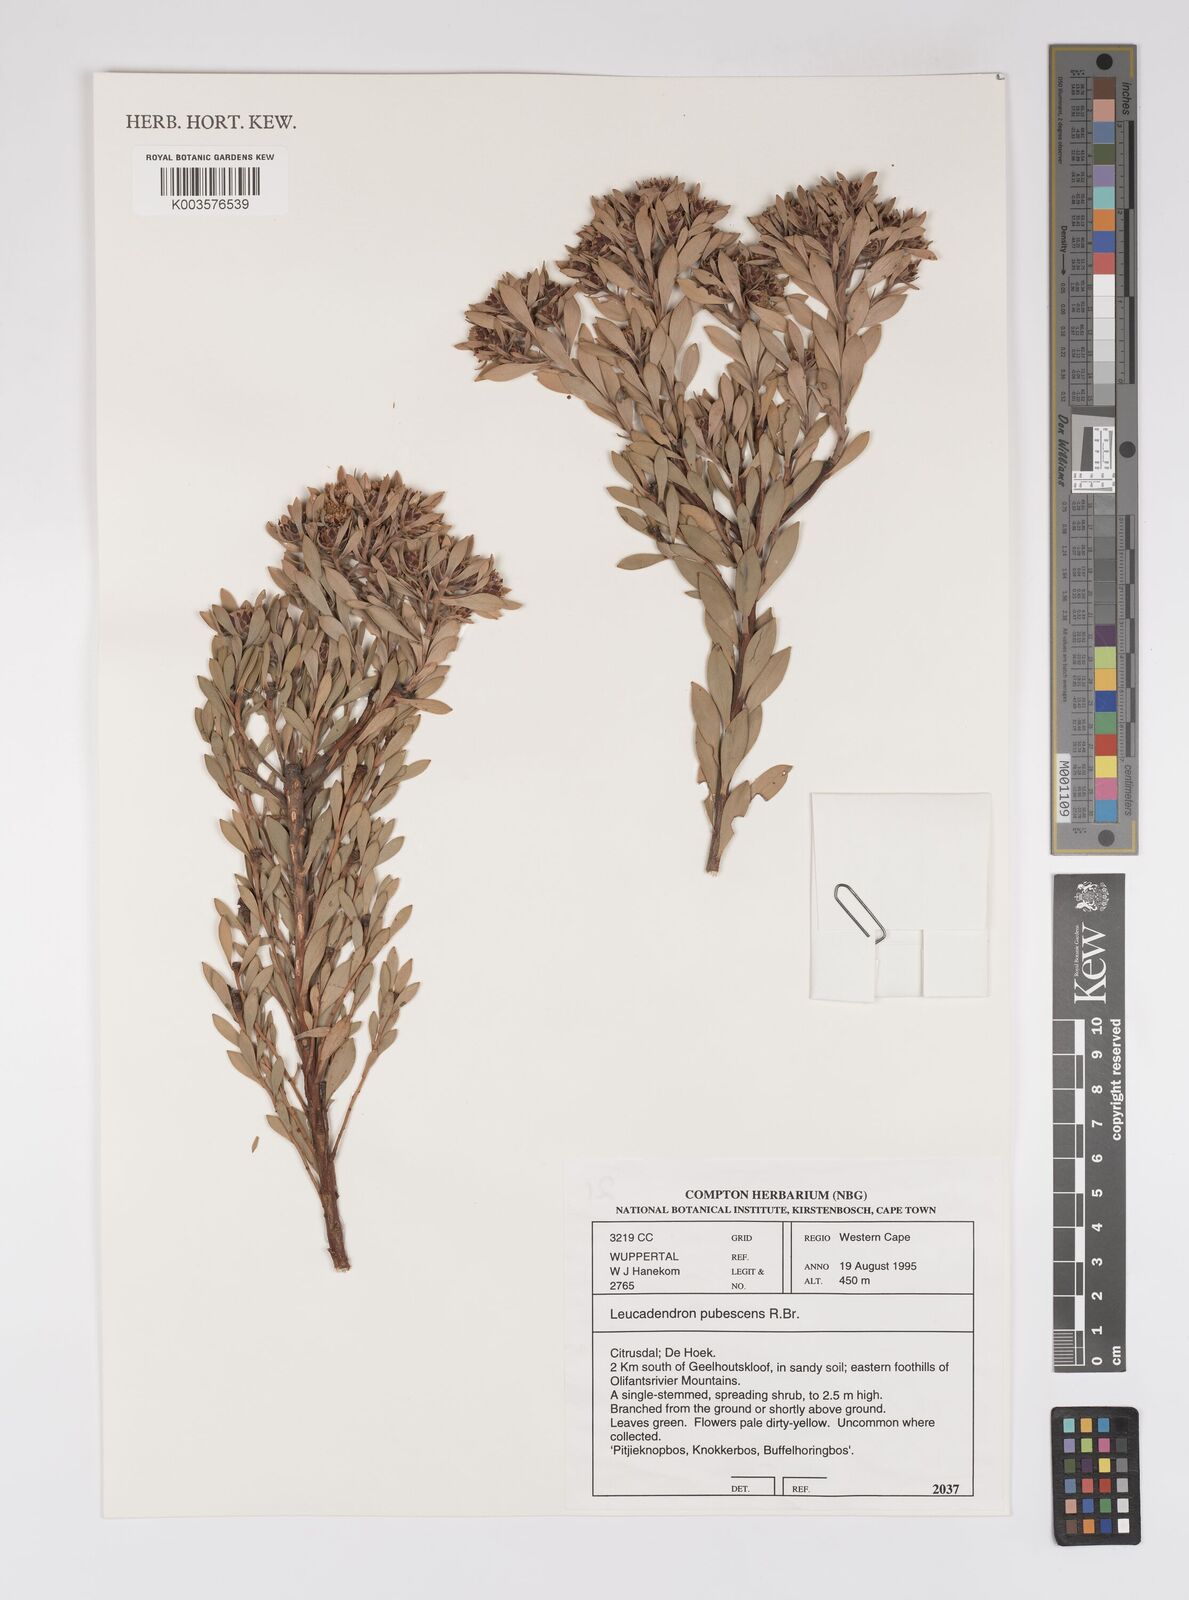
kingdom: Plantae
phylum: Tracheophyta
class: Magnoliopsida
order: Proteales
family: Proteaceae
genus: Leucadendron
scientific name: Leucadendron pubescens
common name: Grey conebush
